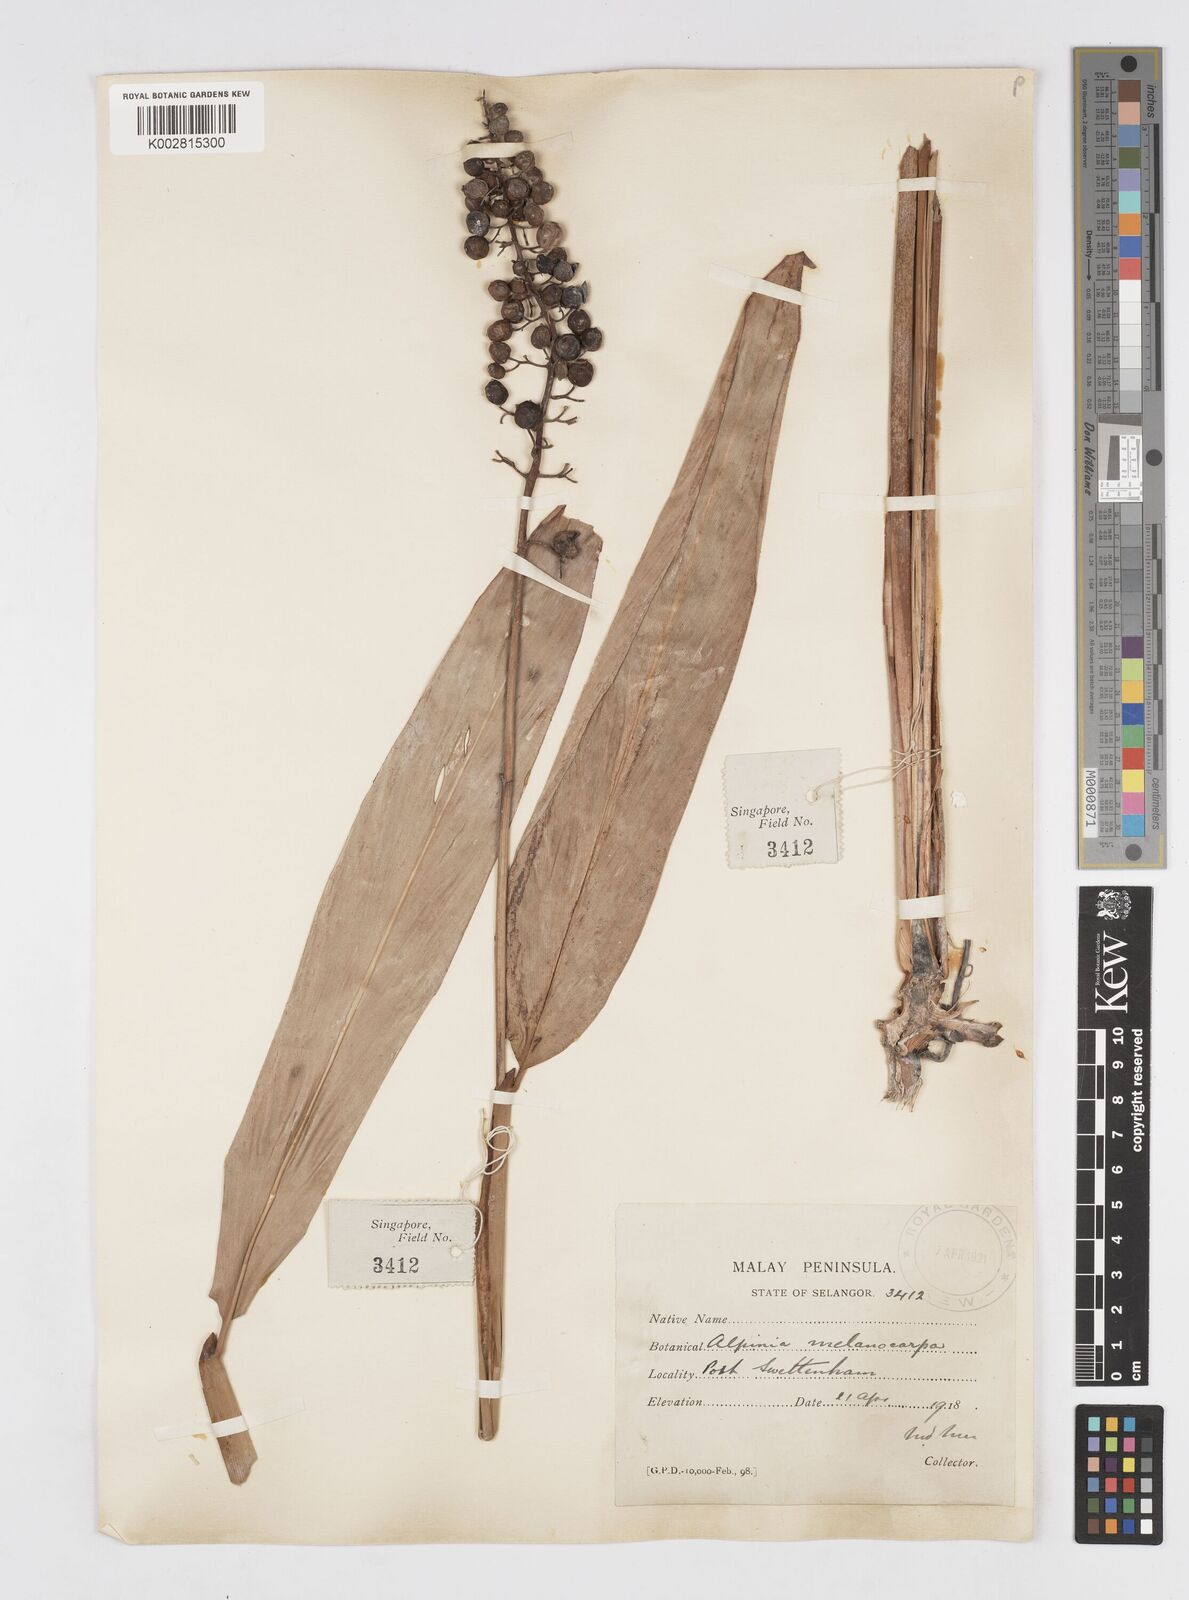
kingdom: Plantae
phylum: Tracheophyta
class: Liliopsida
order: Zingiberales
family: Zingiberaceae
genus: Alpinia
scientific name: Alpinia aquatica
